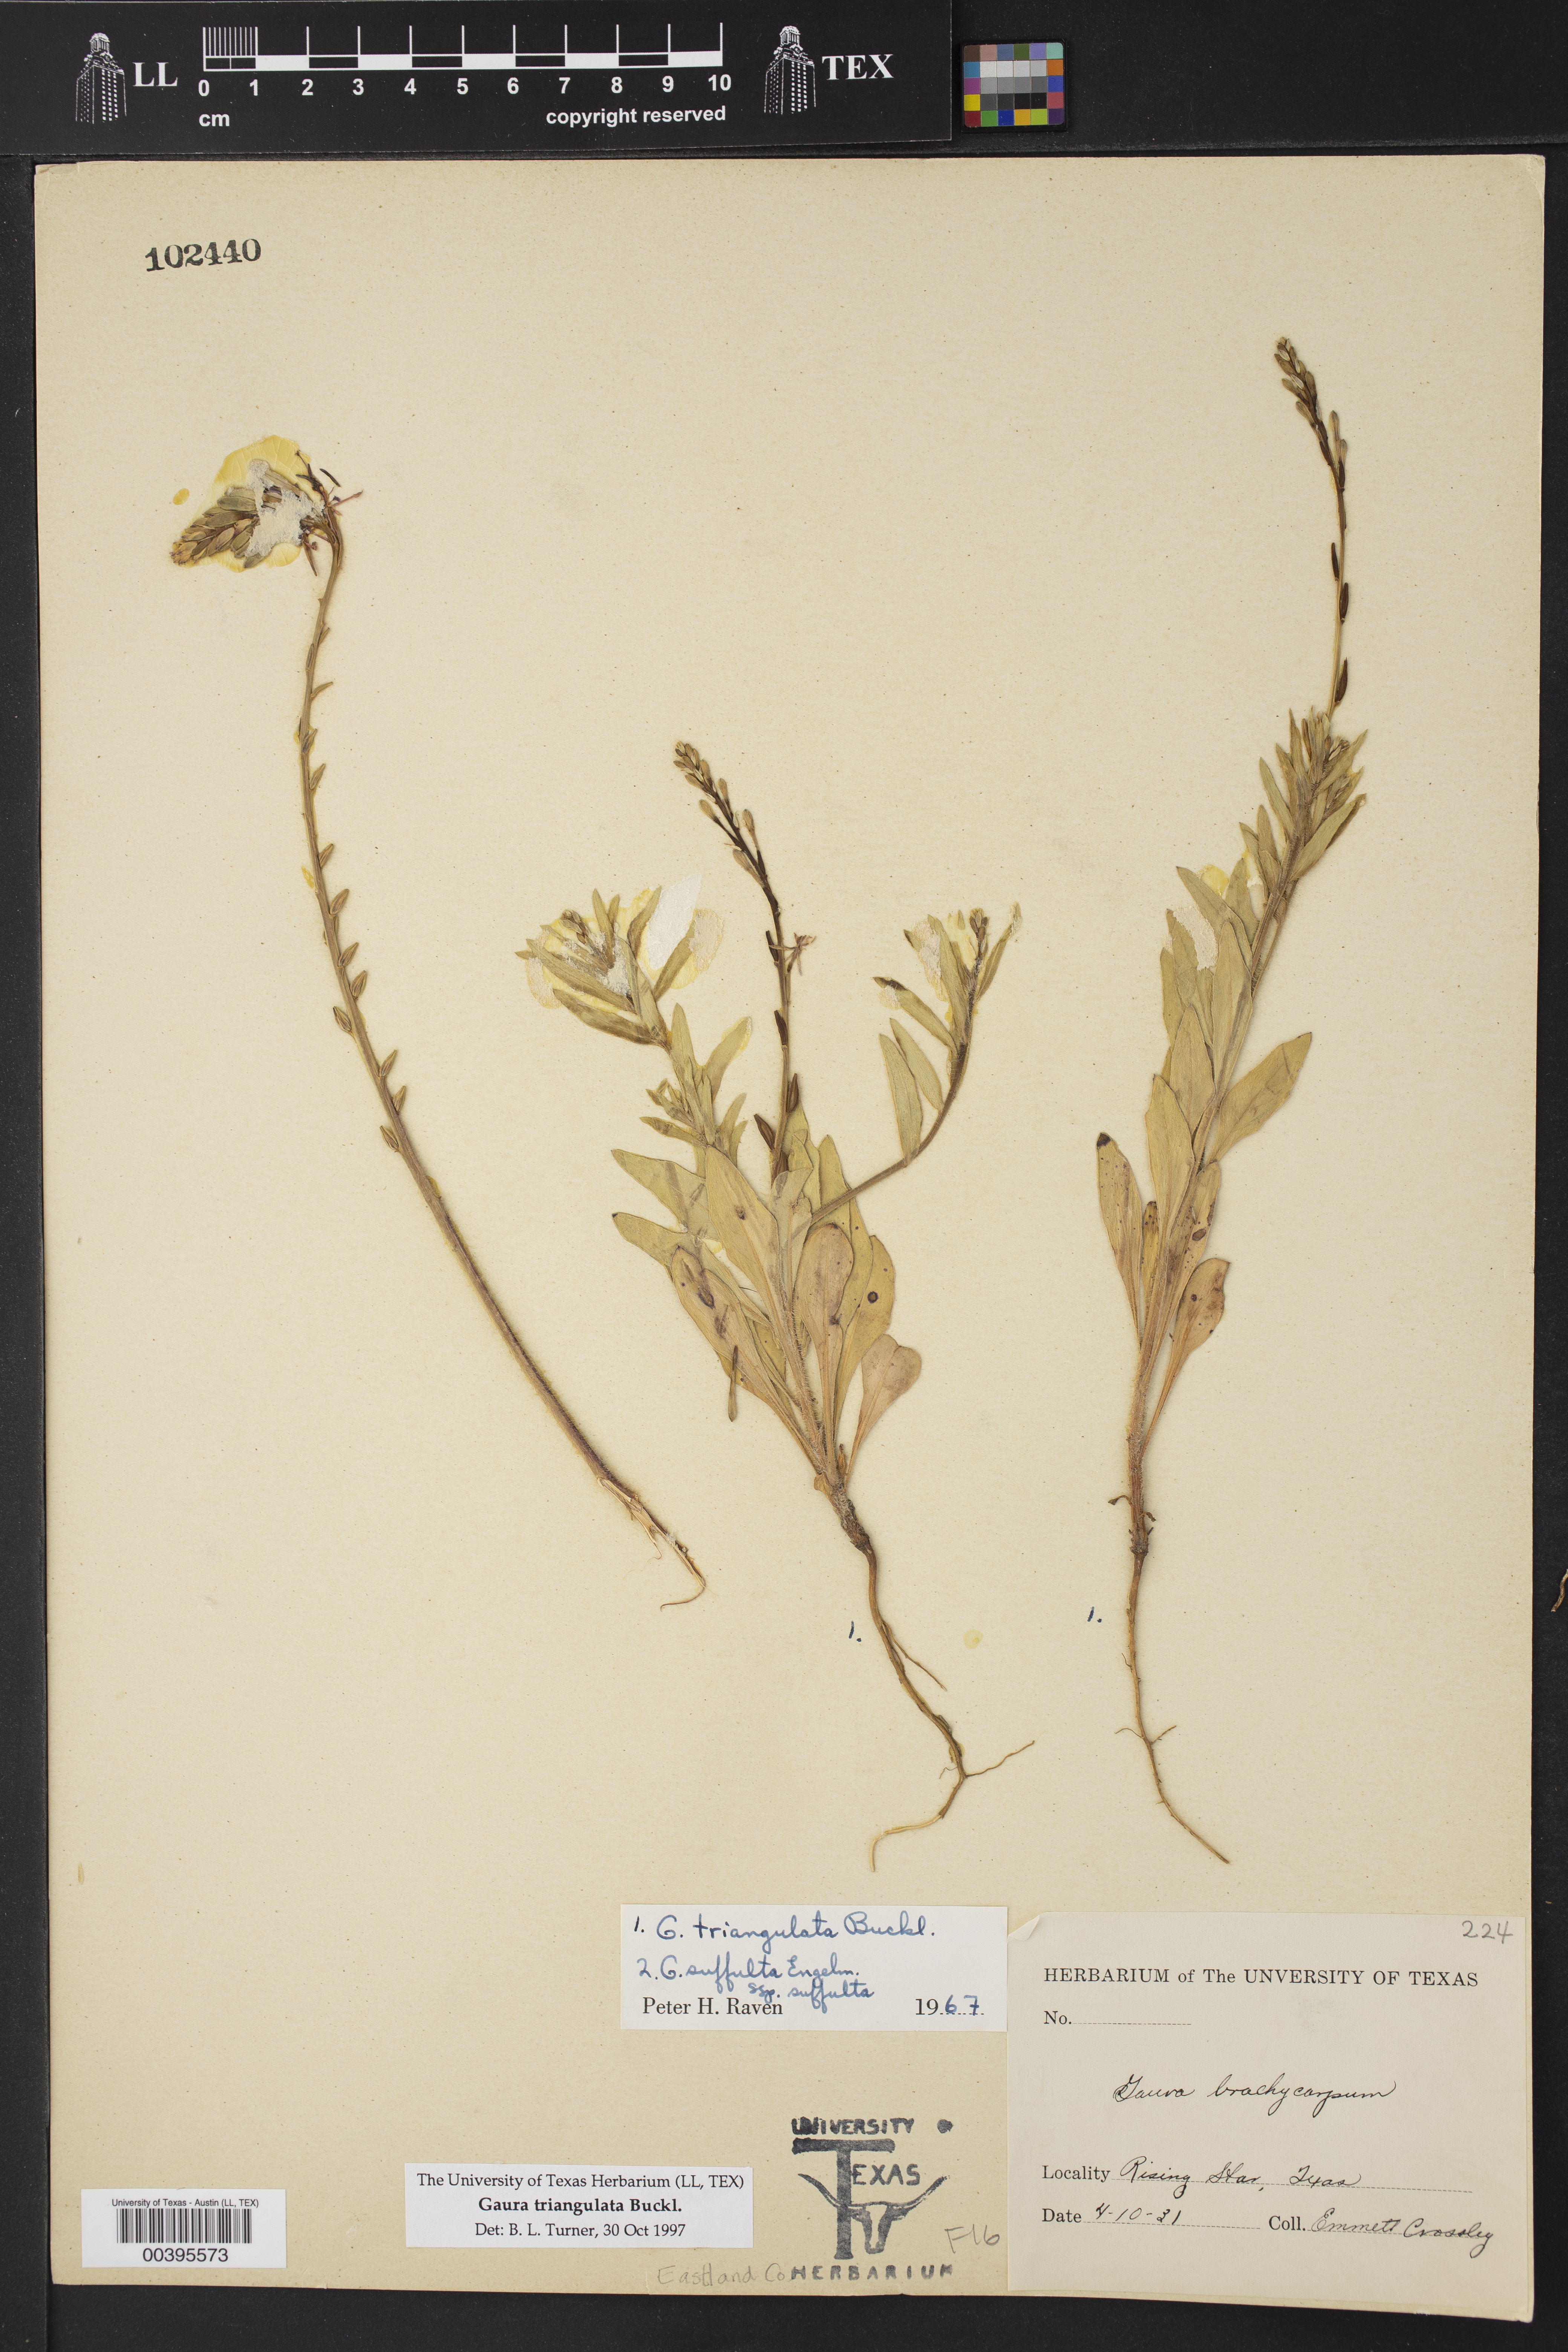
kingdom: Plantae
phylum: Tracheophyta
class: Magnoliopsida
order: Myrtales
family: Onagraceae
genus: Oenothera
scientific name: Oenothera triangulata
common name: Prairie beeblossom
